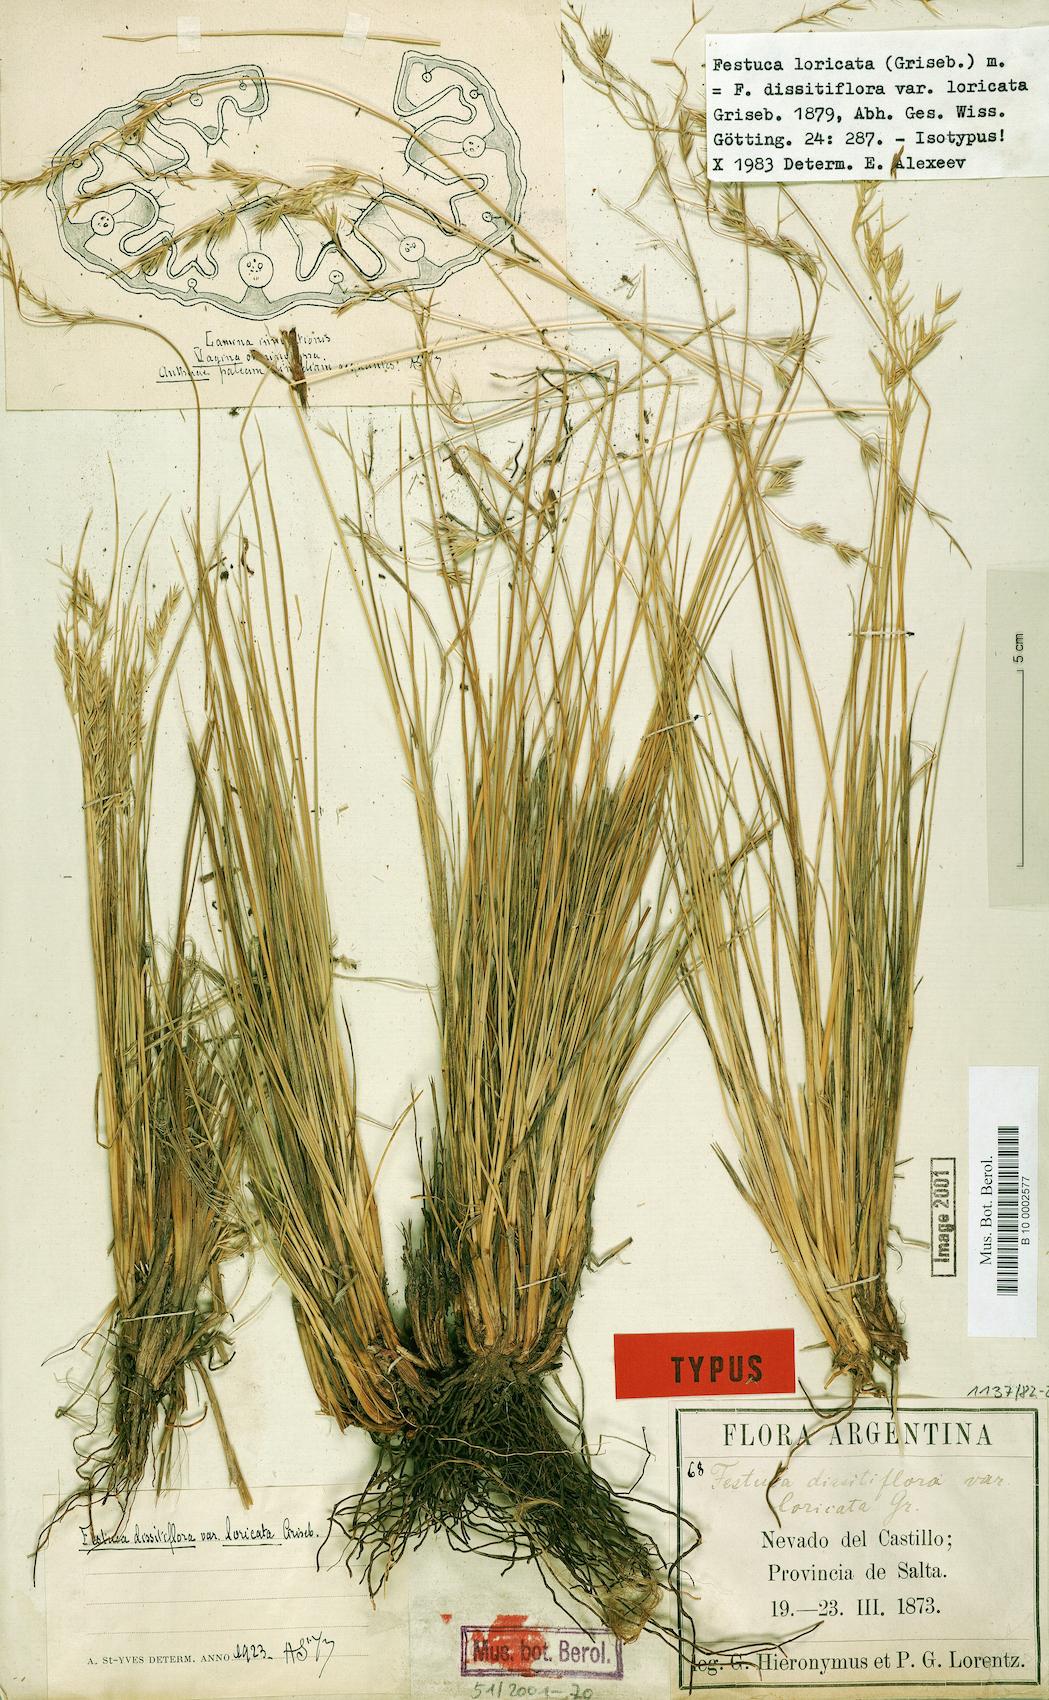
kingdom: Plantae
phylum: Tracheophyta
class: Liliopsida
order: Poales
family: Poaceae
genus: Festuca
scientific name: Festuca fiebrigii
